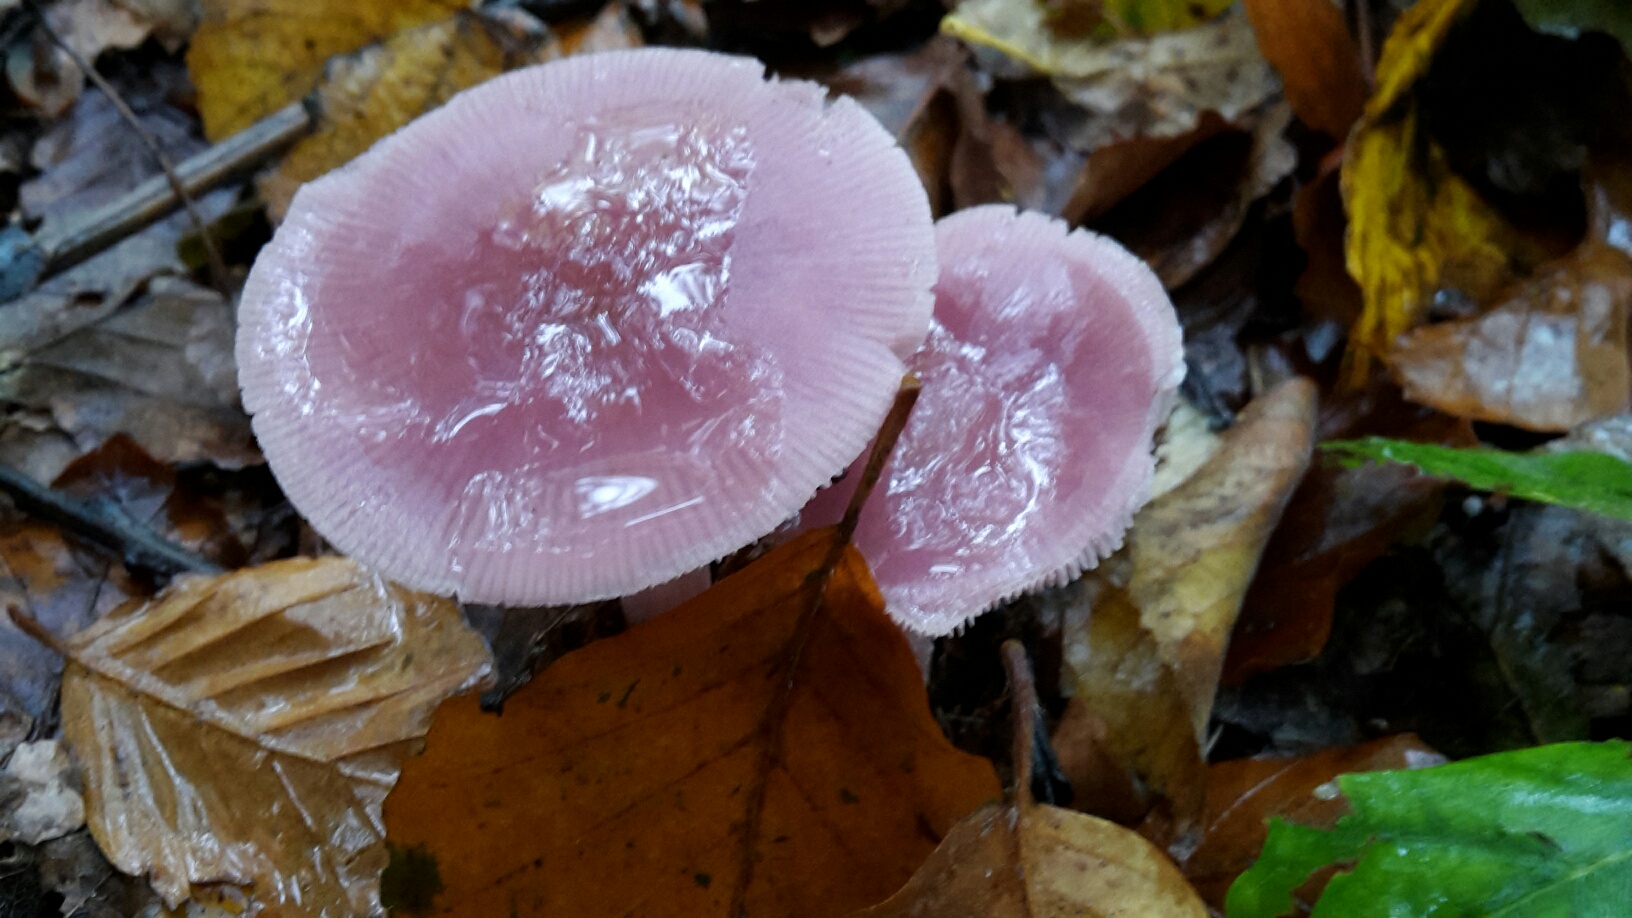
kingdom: Fungi
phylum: Basidiomycota
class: Agaricomycetes
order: Agaricales
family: Mycenaceae
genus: Mycena
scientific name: Mycena rosea
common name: rosa huesvamp
